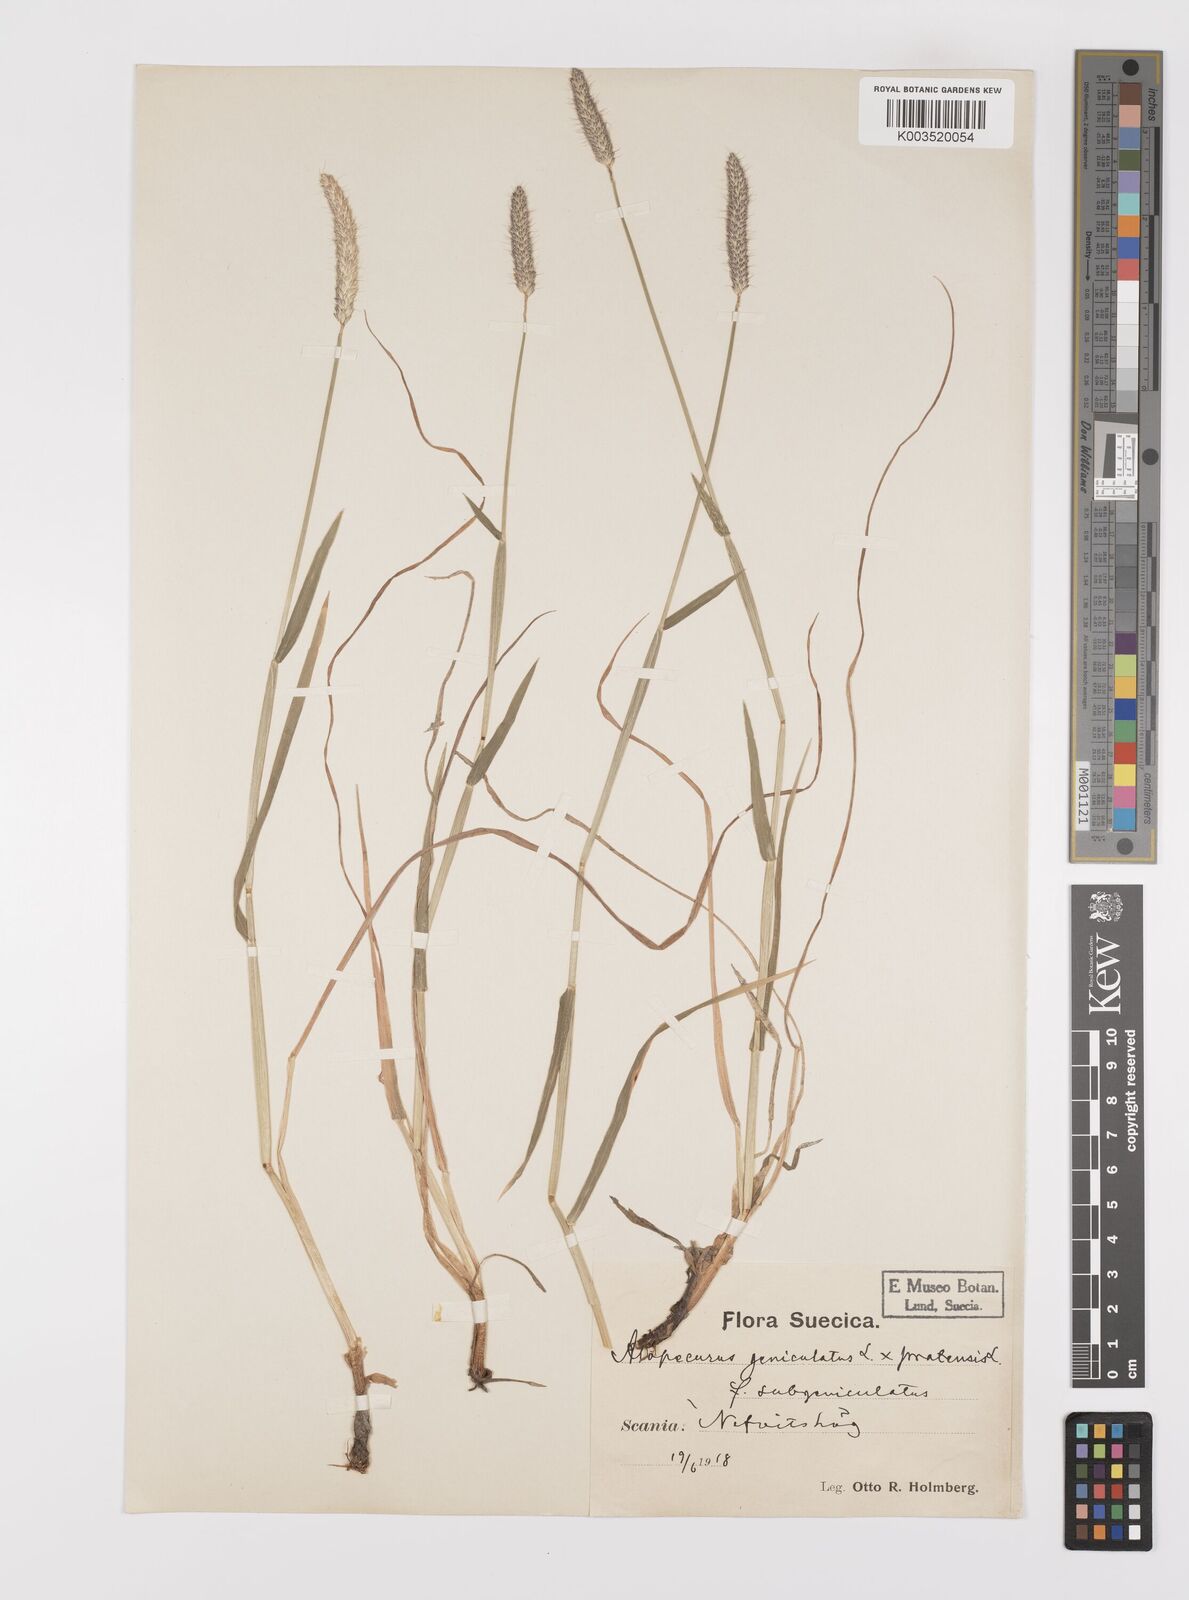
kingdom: Plantae
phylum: Tracheophyta
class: Liliopsida
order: Poales
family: Poaceae
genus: Alopecurus
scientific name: Alopecurus brachystylus
